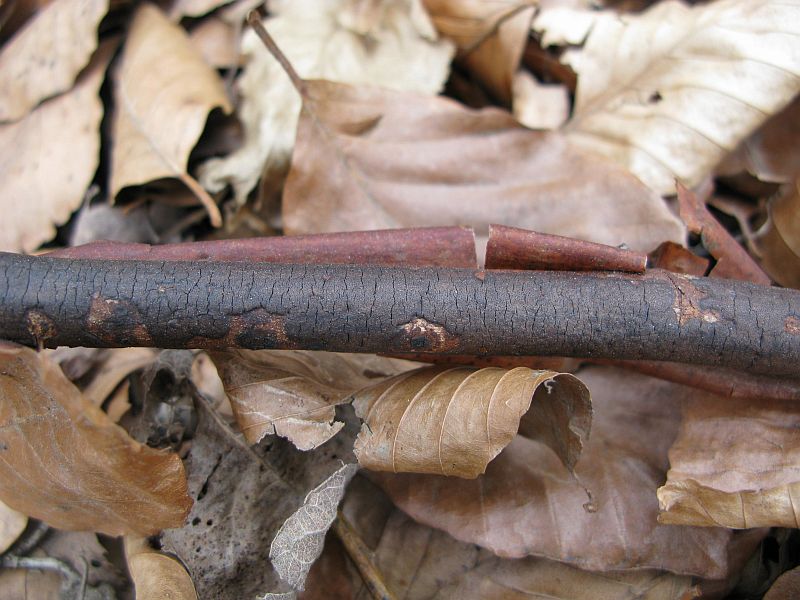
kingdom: Fungi
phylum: Ascomycota
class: Sordariomycetes
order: Xylariales
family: Diatrypaceae
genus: Diatrype
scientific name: Diatrype decorticata
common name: barksprænger-kulskorpe
